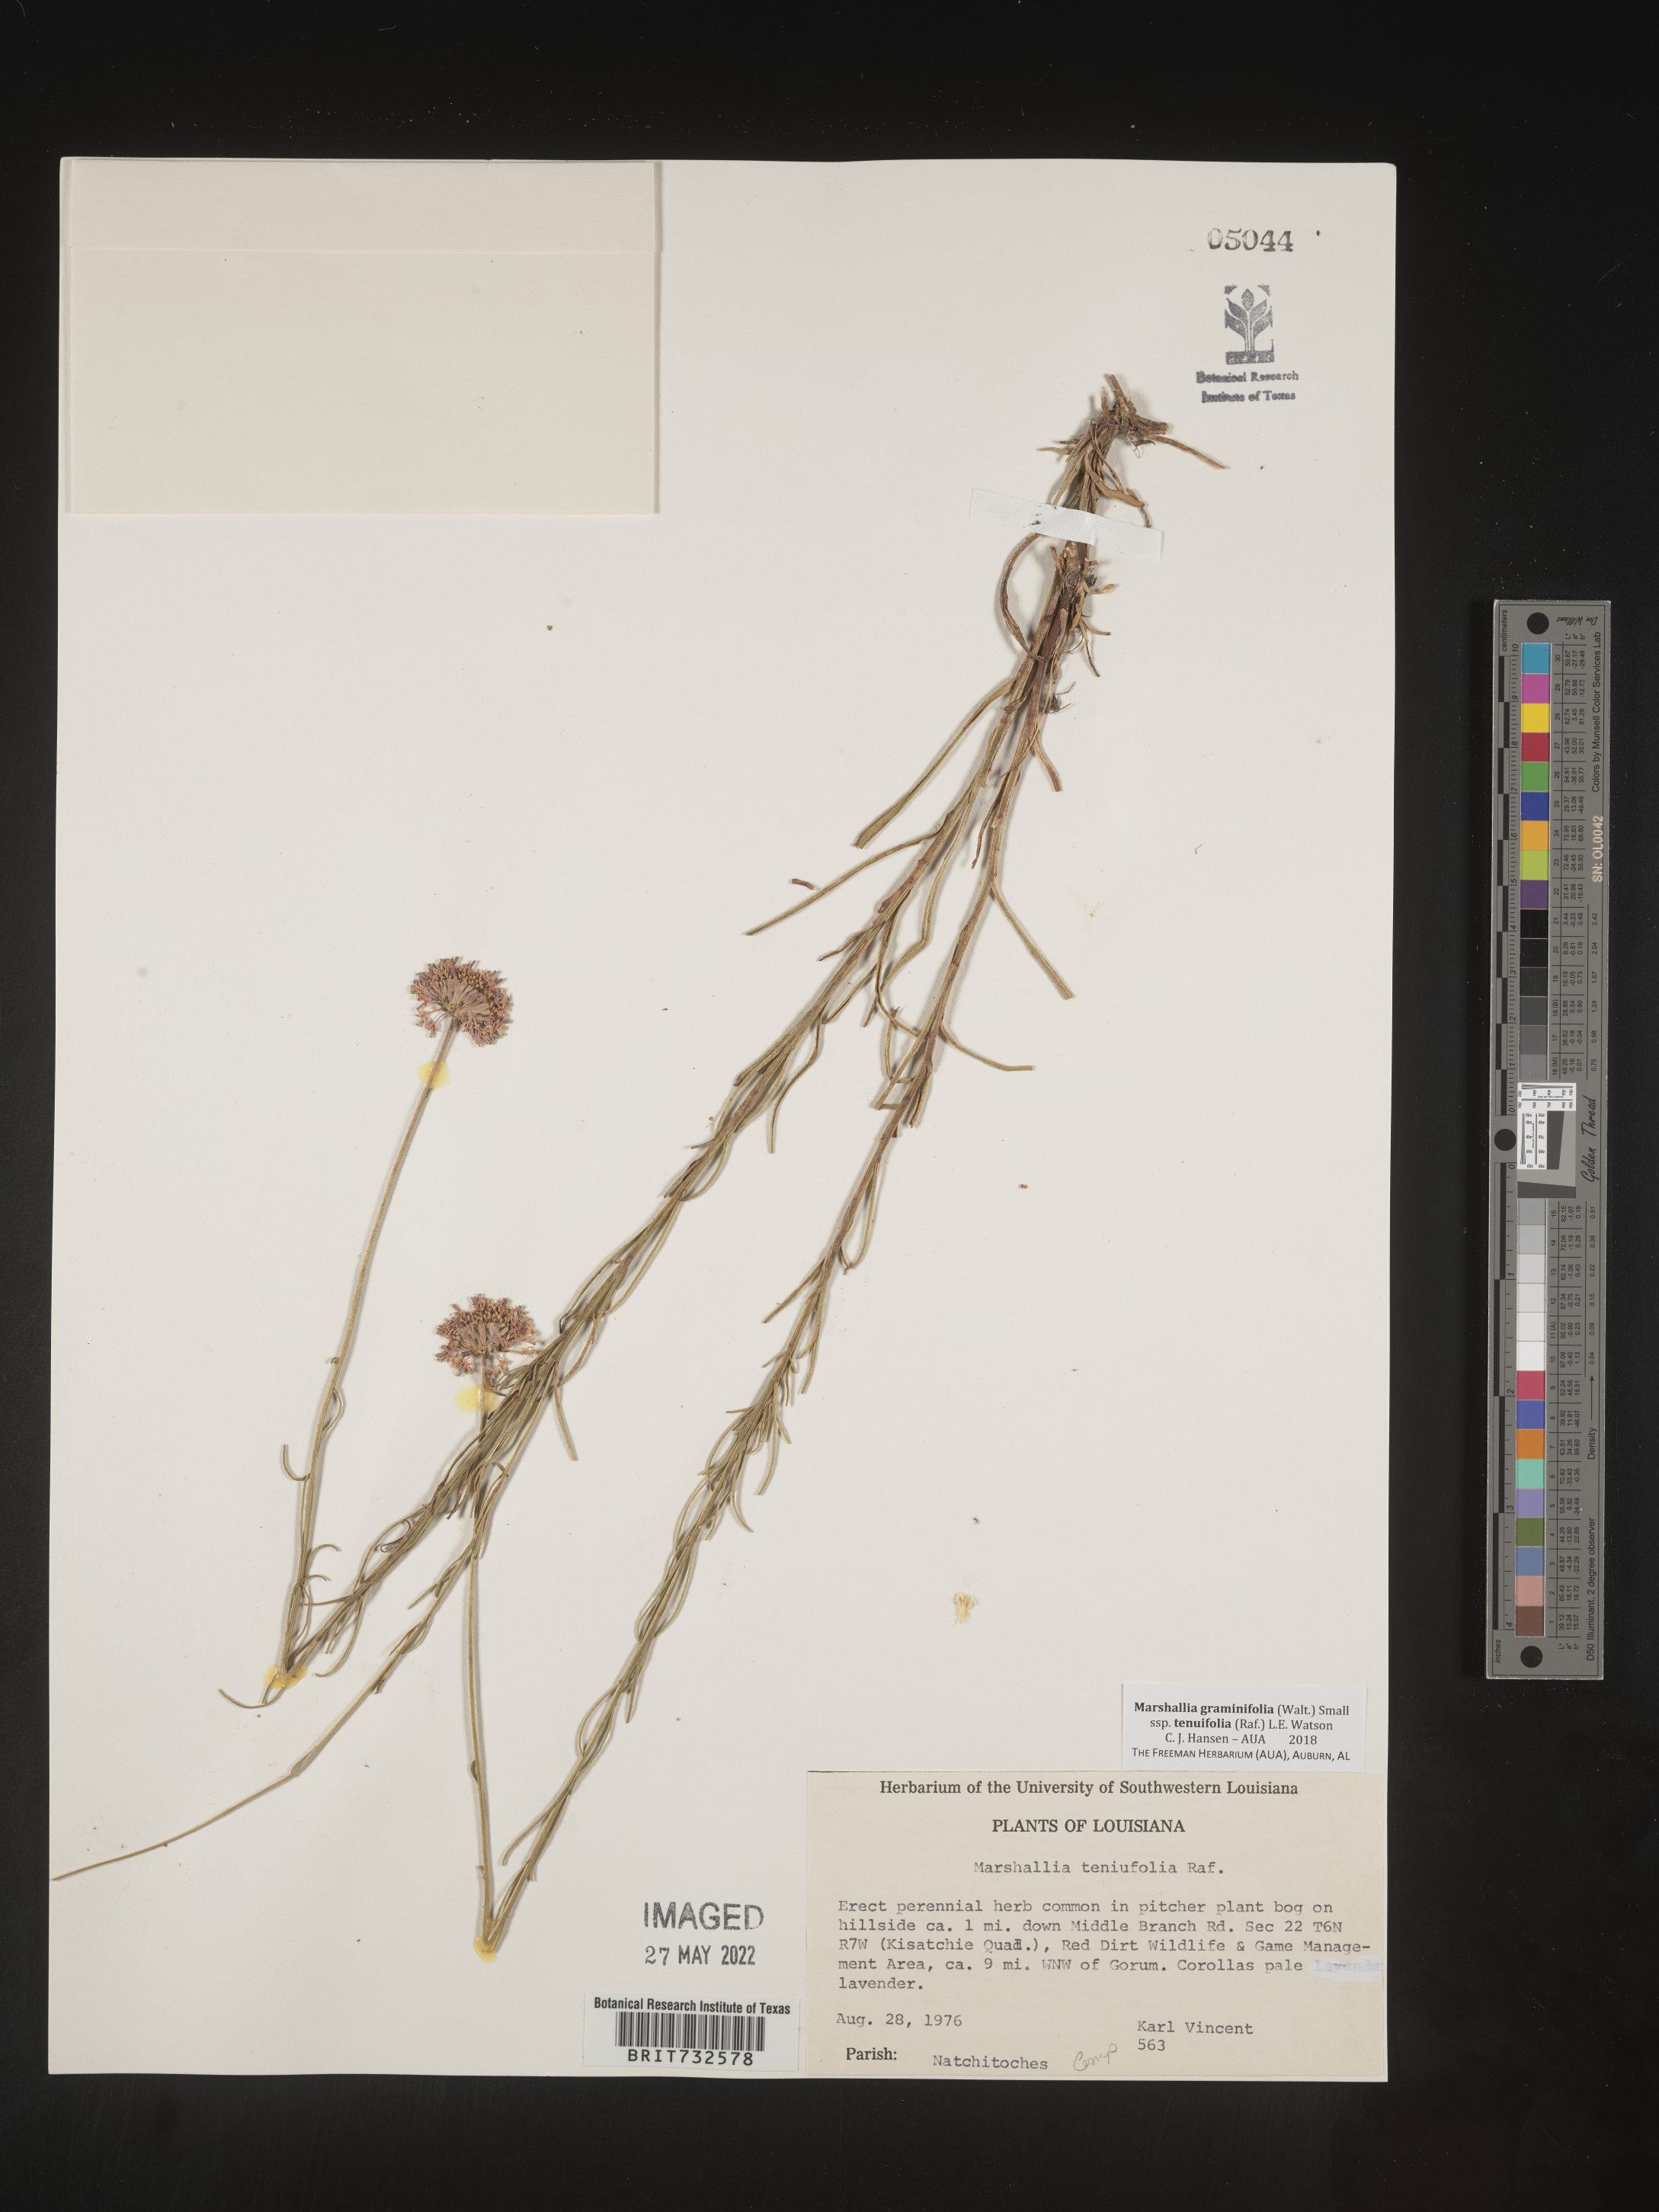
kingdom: Plantae
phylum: Tracheophyta
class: Magnoliopsida
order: Asterales
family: Asteraceae
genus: Marshallia
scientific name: Marshallia graminifolia
